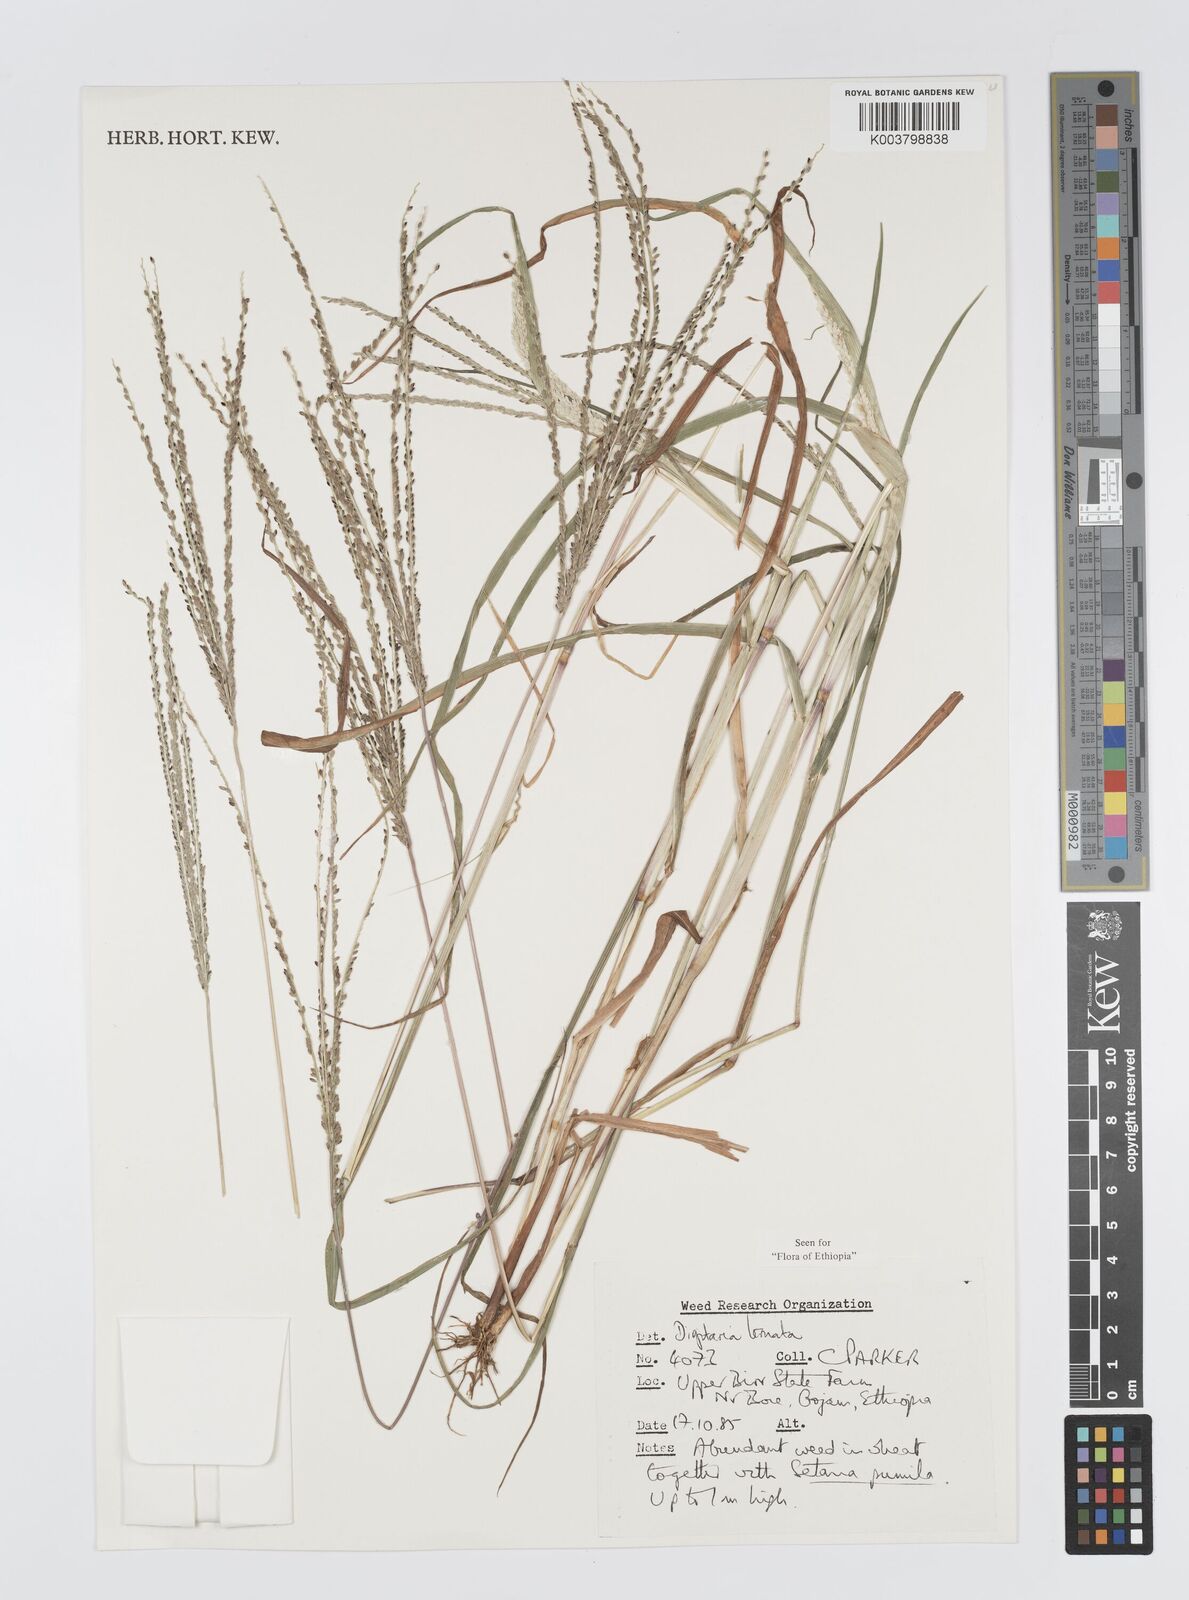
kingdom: Plantae
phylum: Tracheophyta
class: Liliopsida
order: Poales
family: Poaceae
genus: Digitaria
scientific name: Digitaria ternata
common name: Blackseed crabgrass
